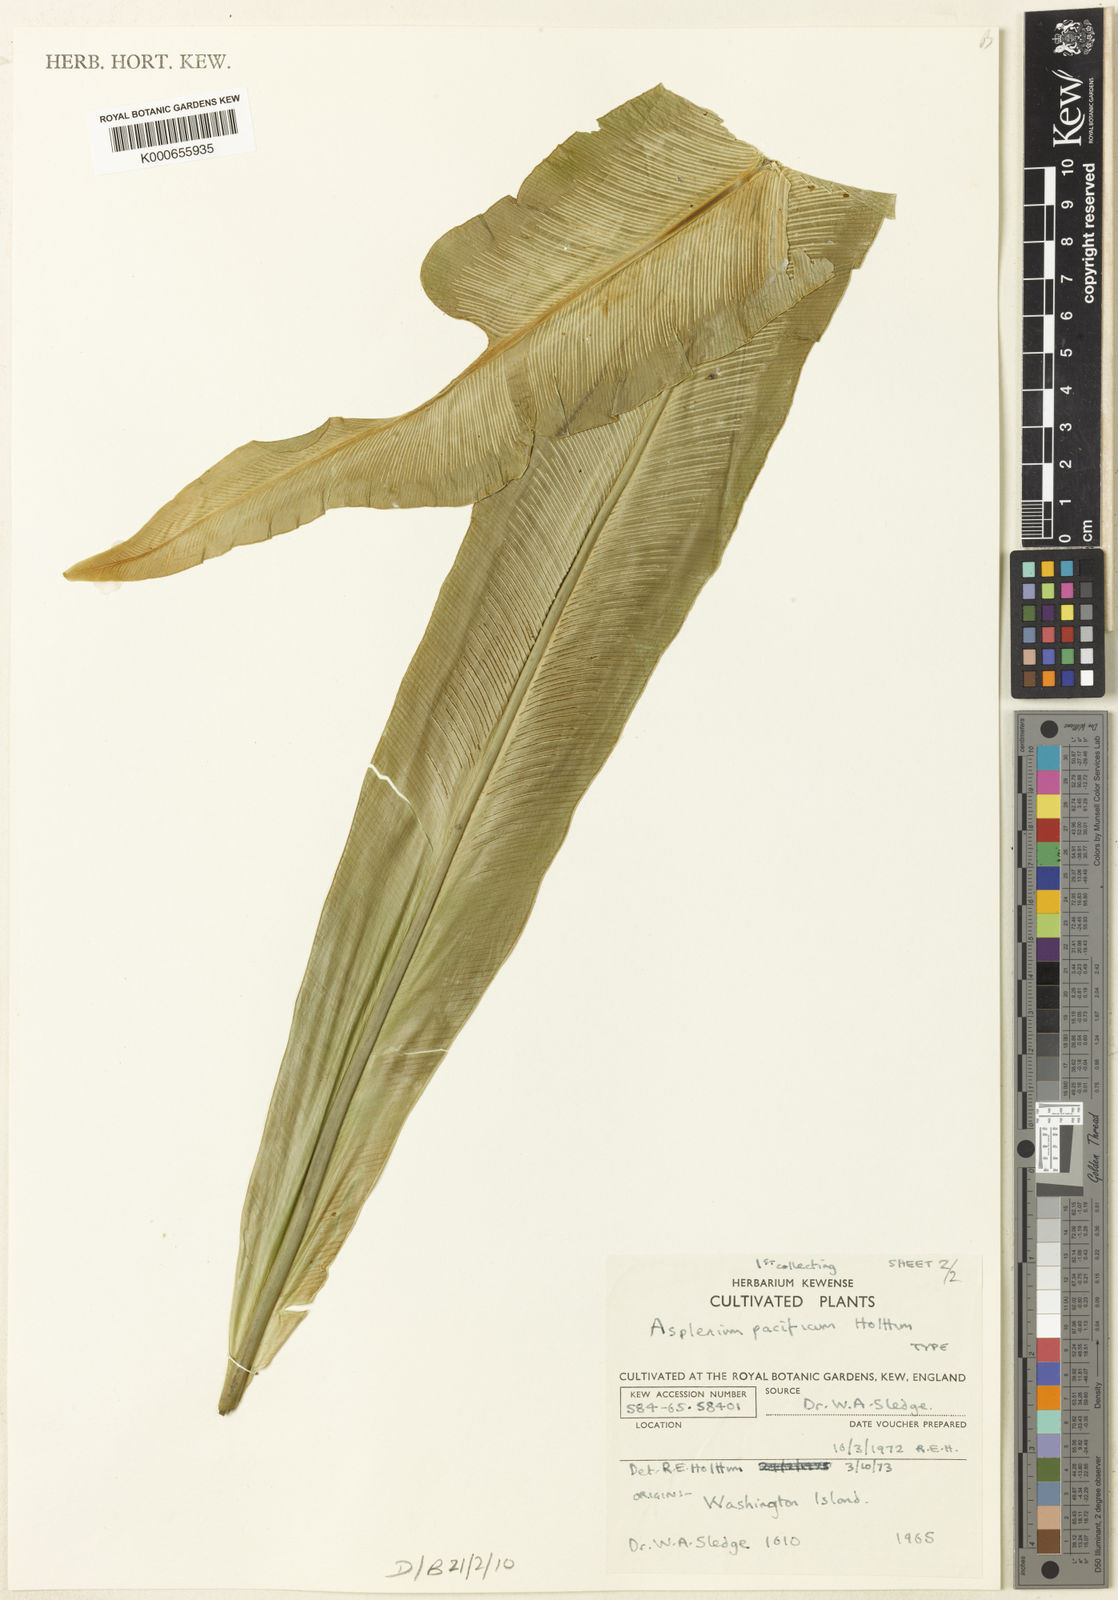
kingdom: Plantae
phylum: Tracheophyta
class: Polypodiopsida
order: Polypodiales
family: Aspleniaceae
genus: Asplenium
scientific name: Asplenium pacificum
